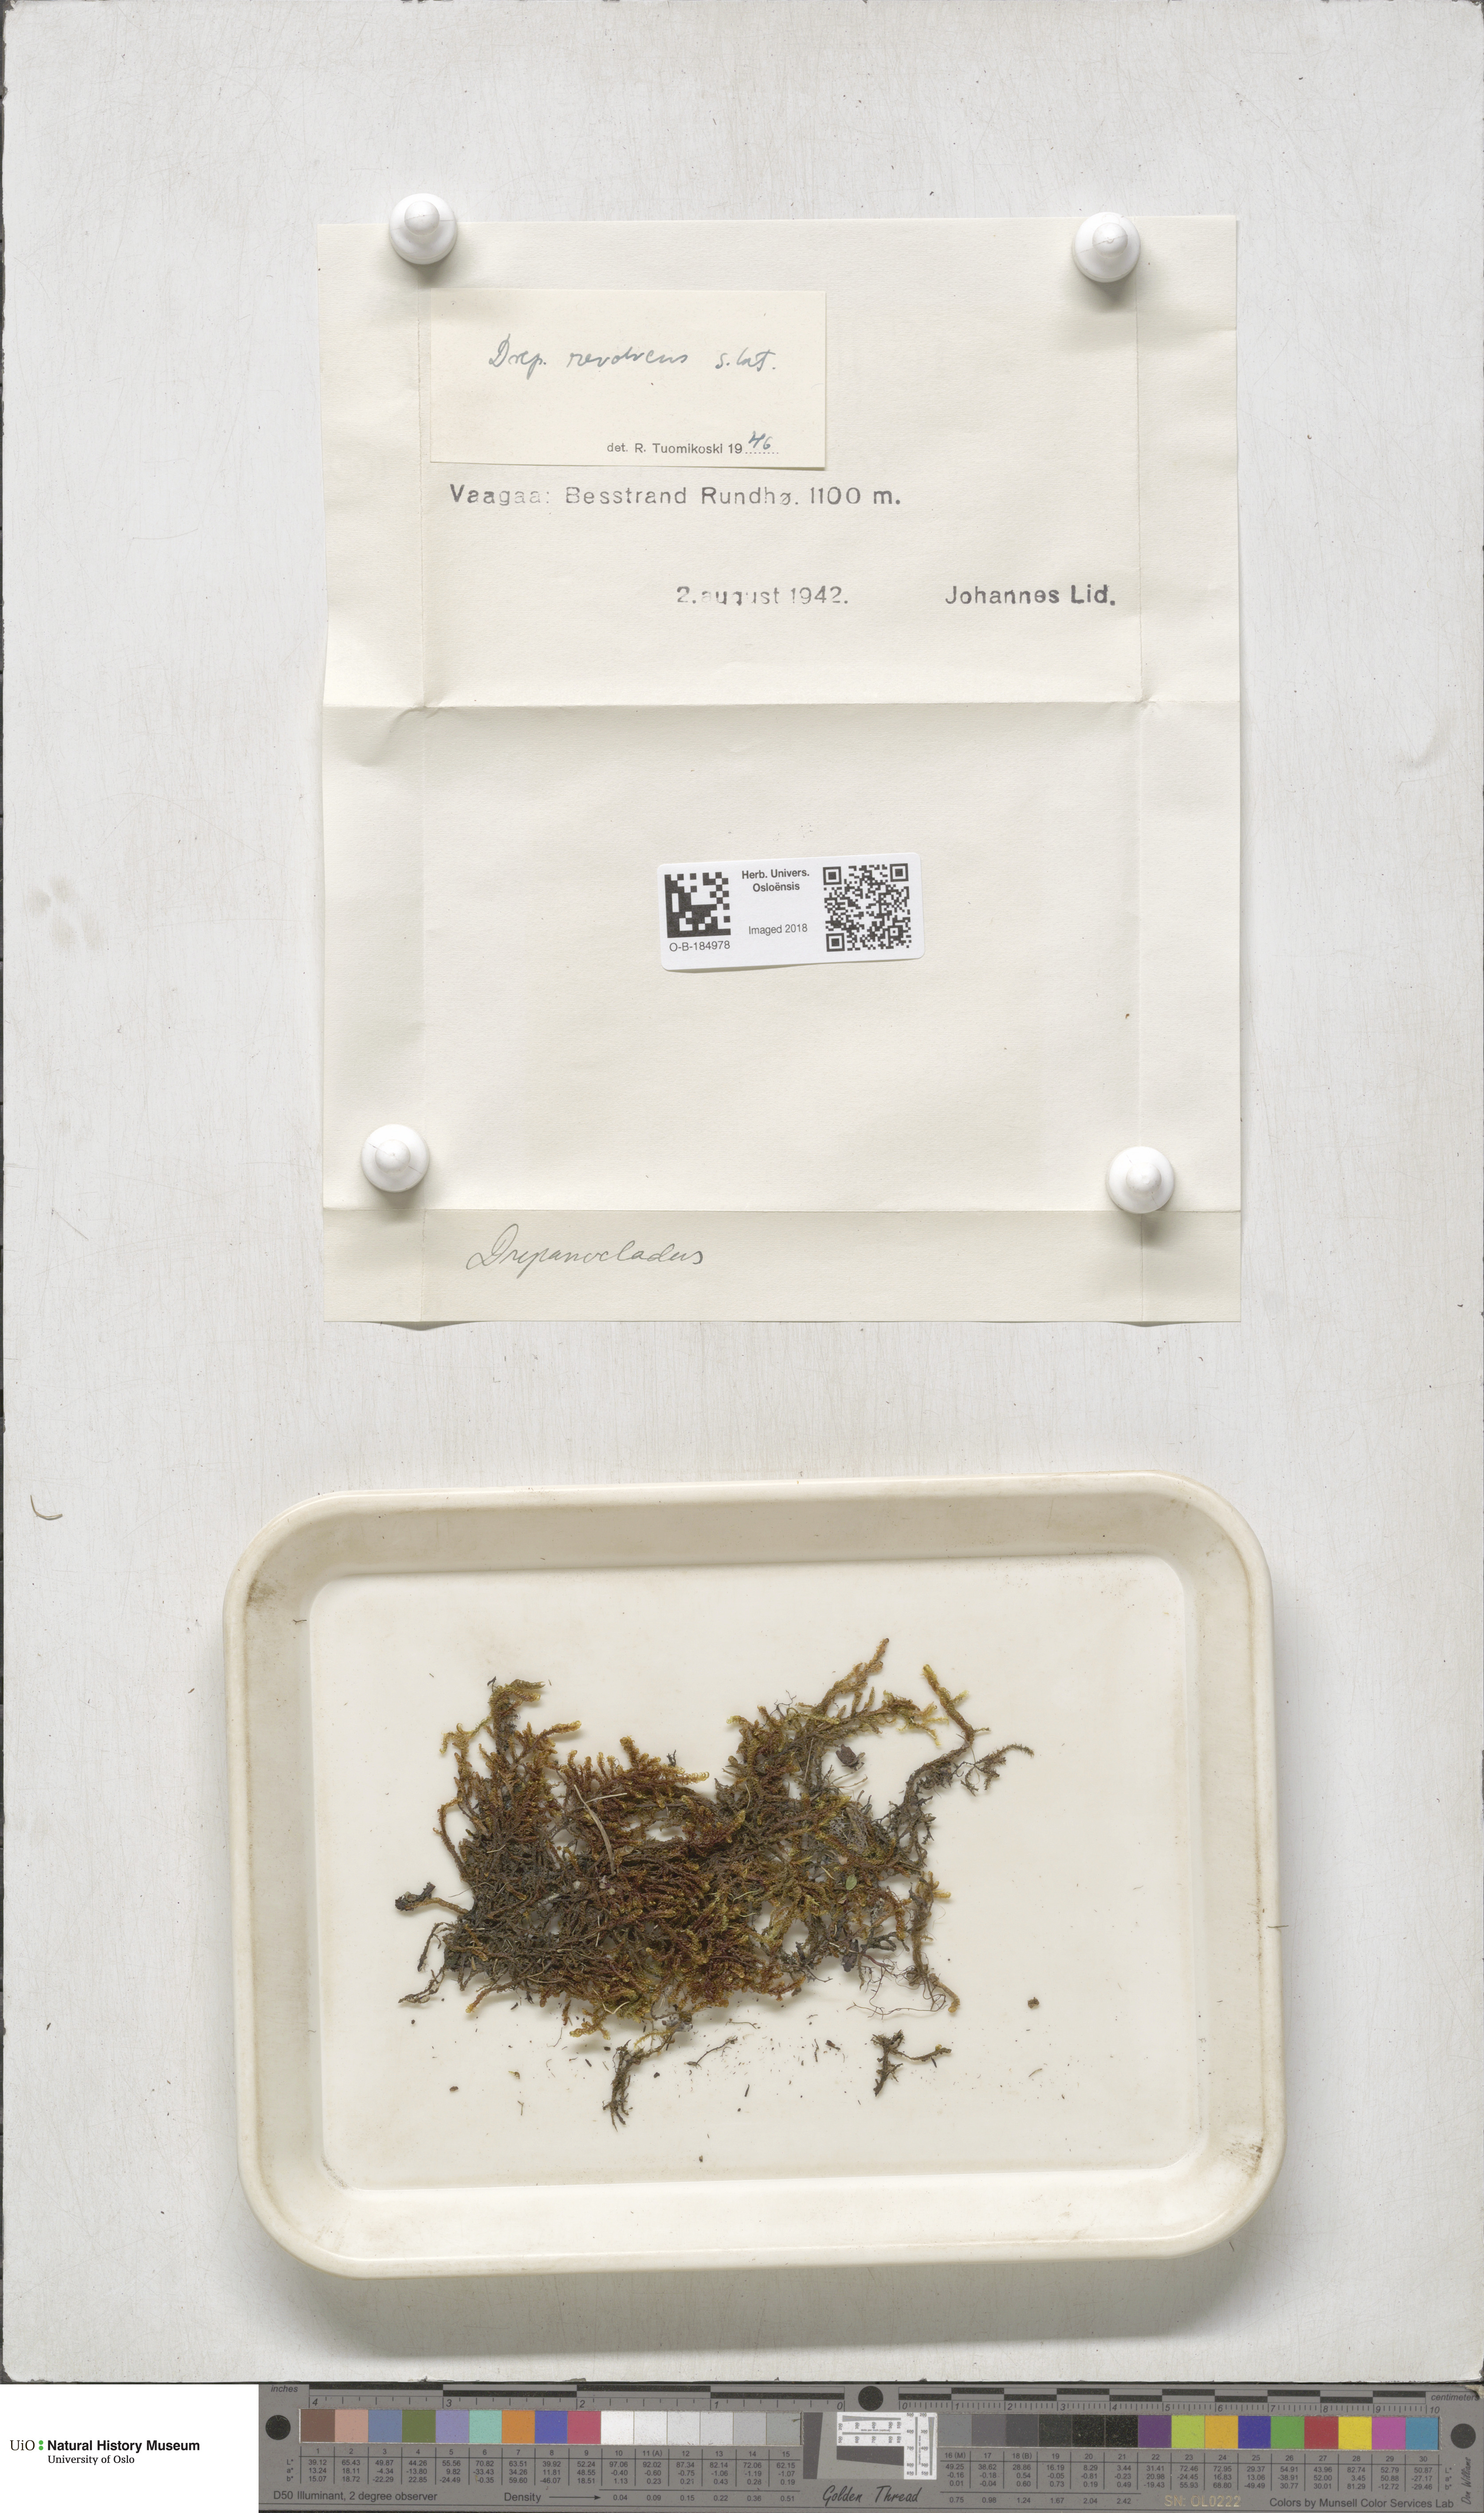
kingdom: Plantae
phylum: Bryophyta
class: Bryopsida
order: Hypnales
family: Scorpidiaceae
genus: Scorpidium
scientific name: Scorpidium revolvens
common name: Rusty hook moss
